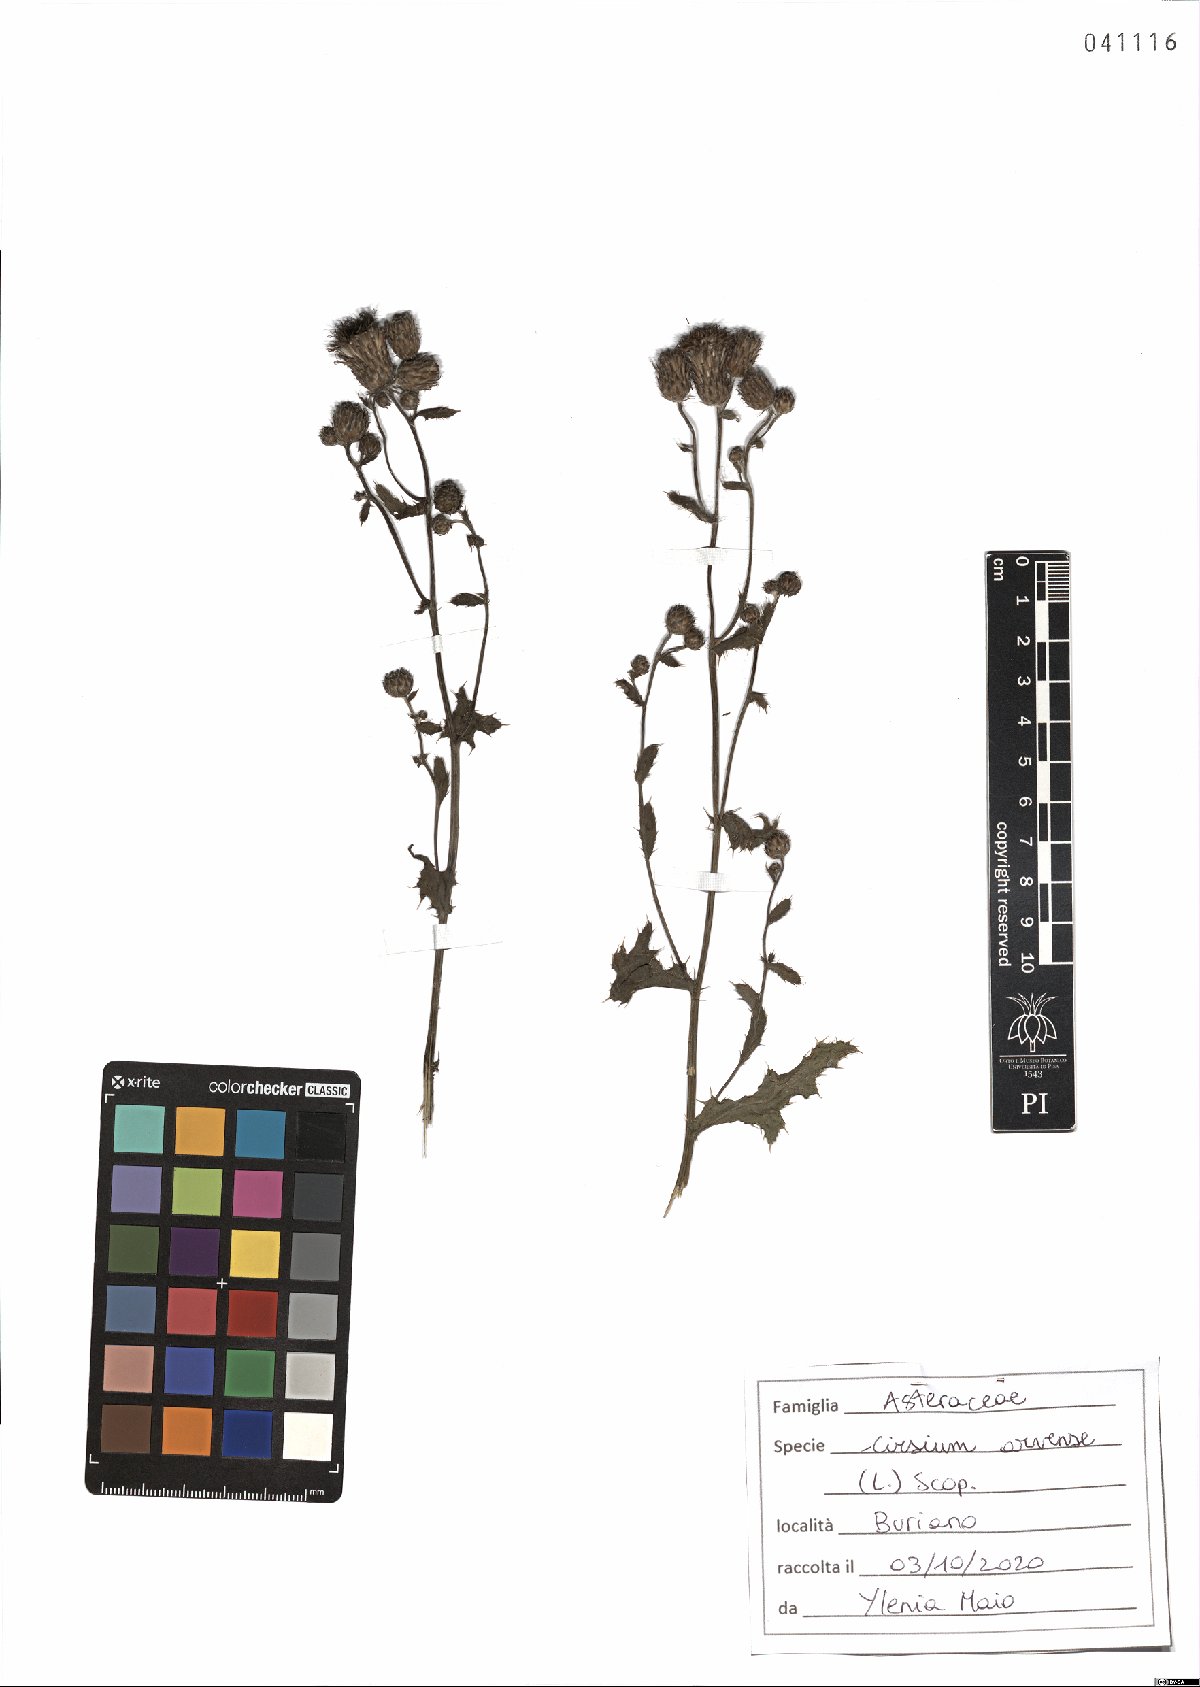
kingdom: Plantae
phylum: Tracheophyta
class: Magnoliopsida
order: Asterales
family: Asteraceae
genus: Cirsium
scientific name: Cirsium arvense
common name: Creeping thistle
